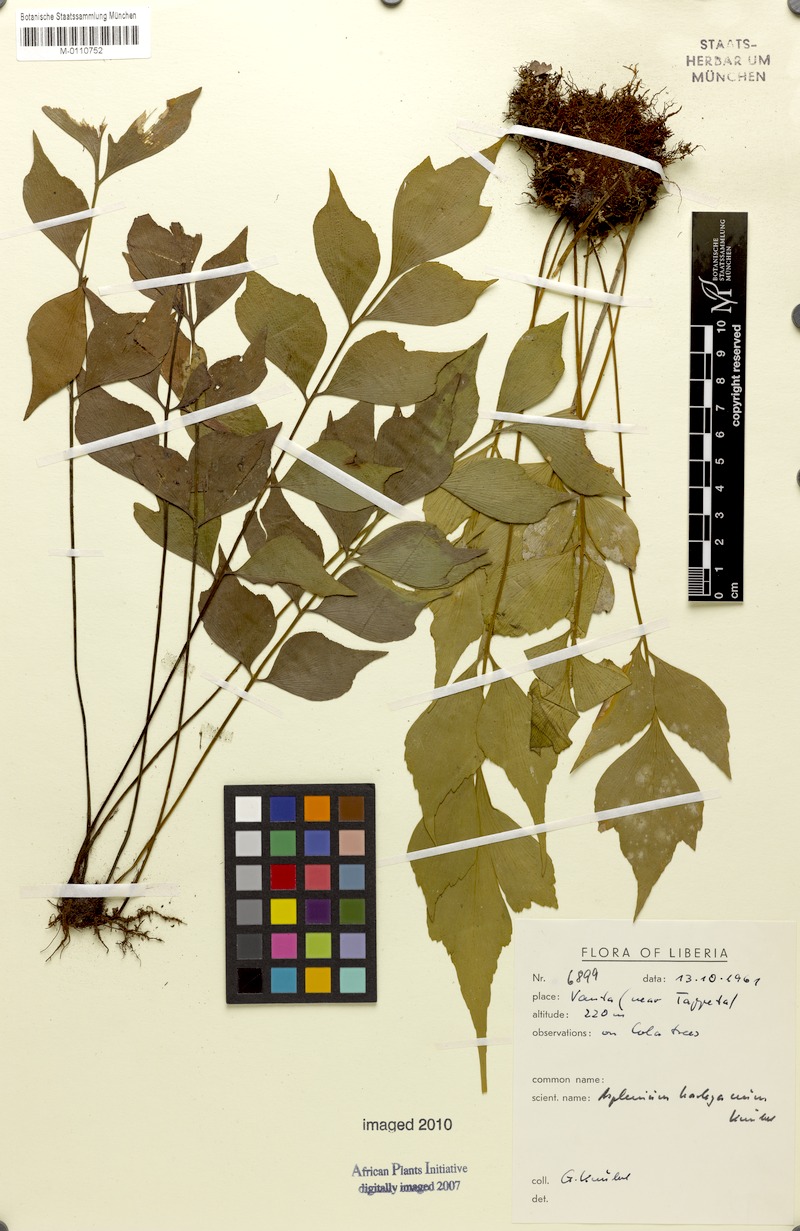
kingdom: Plantae
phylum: Tracheophyta
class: Polypodiopsida
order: Polypodiales
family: Aspleniaceae
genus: Asplenium
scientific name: Asplenium harleyanum
